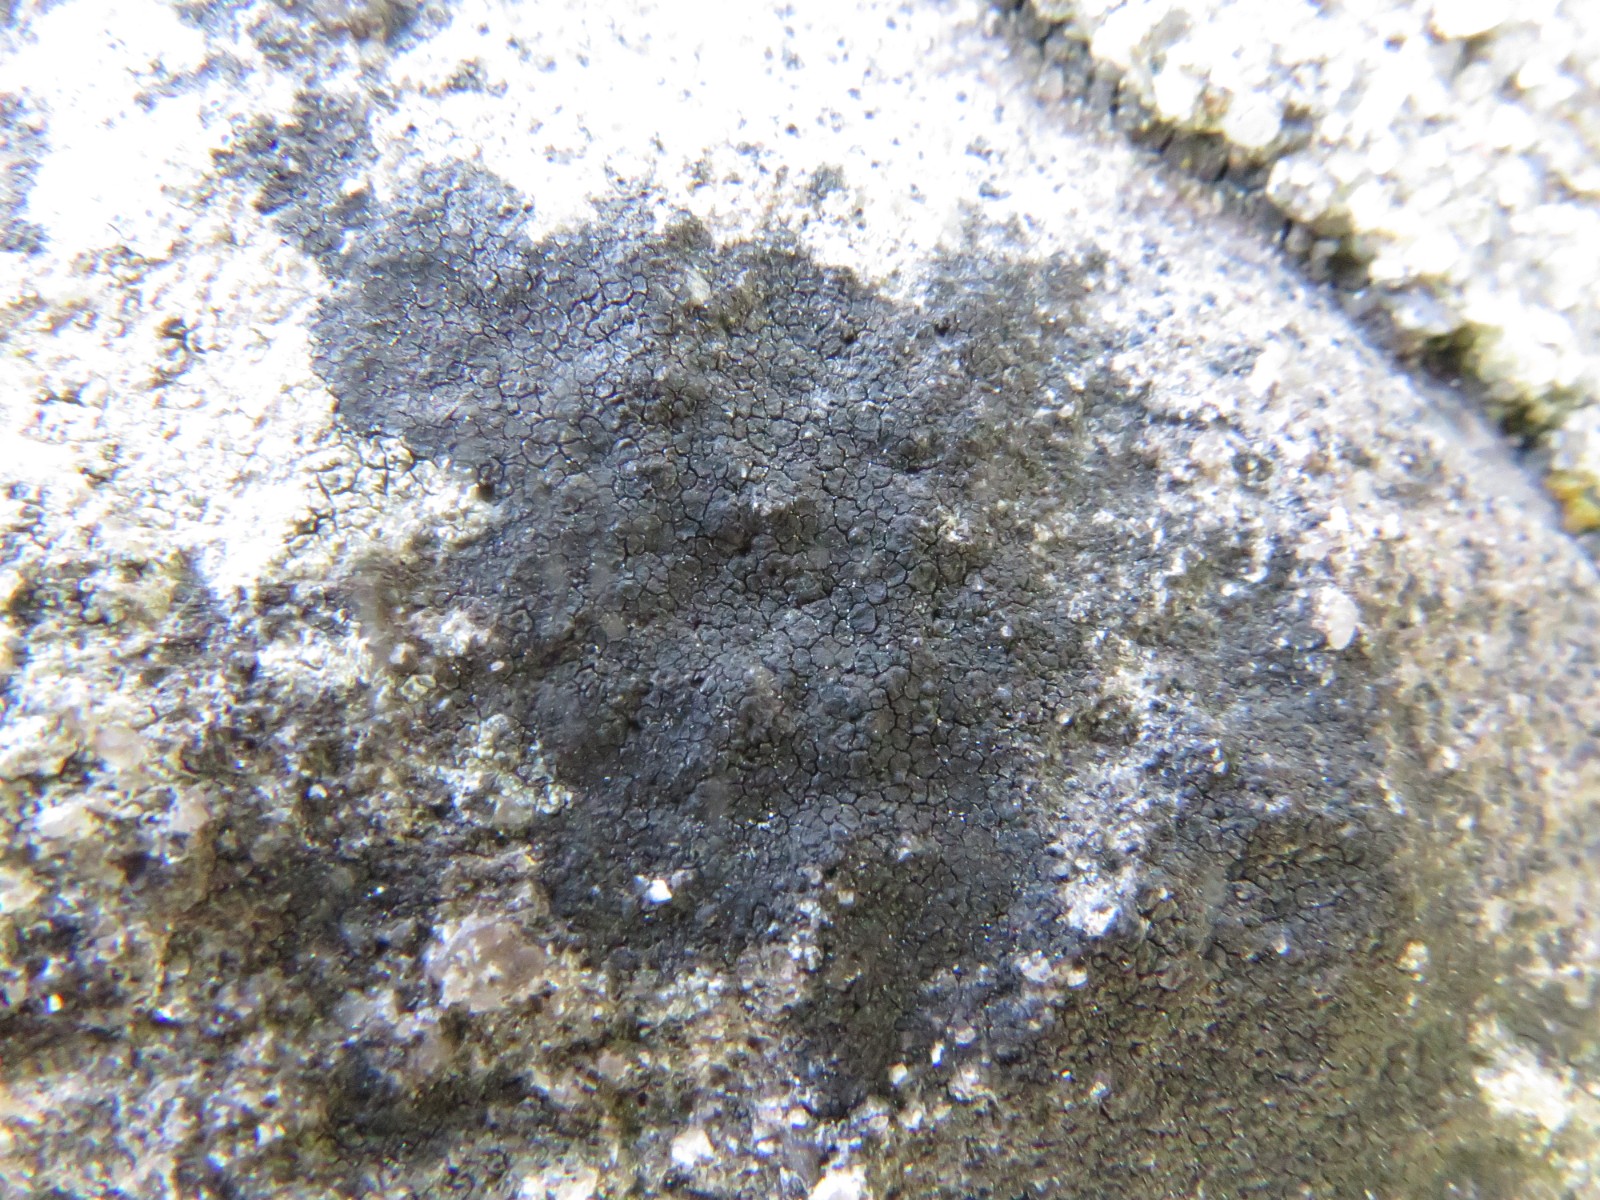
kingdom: Fungi
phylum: Ascomycota
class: Eurotiomycetes
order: Verrucariales
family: Verrucariaceae
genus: Verrucaria
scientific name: Verrucaria nigrescens
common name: sortbrun vortelav
